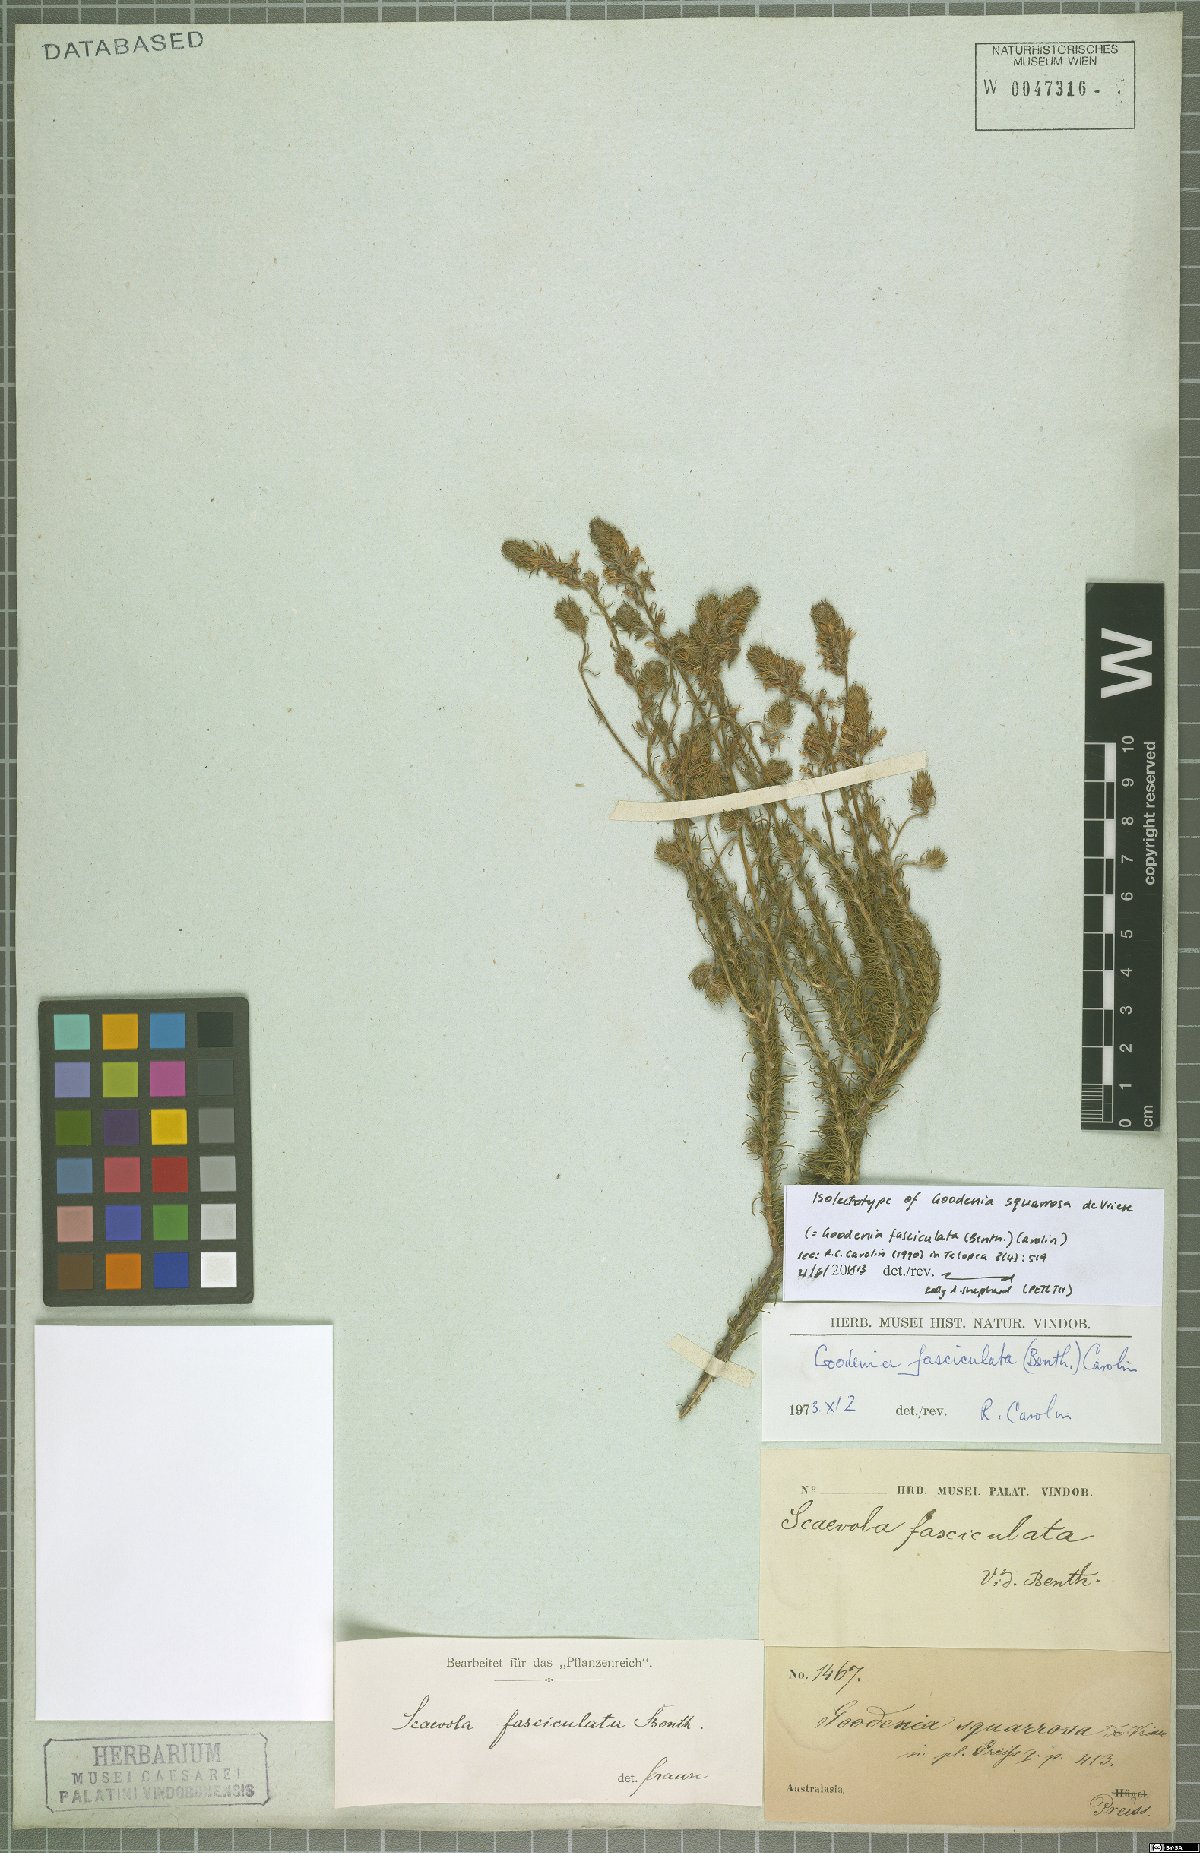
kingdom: Plantae
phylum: Tracheophyta
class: Magnoliopsida
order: Asterales
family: Goodeniaceae
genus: Goodenia
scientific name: Goodenia fasciculata
